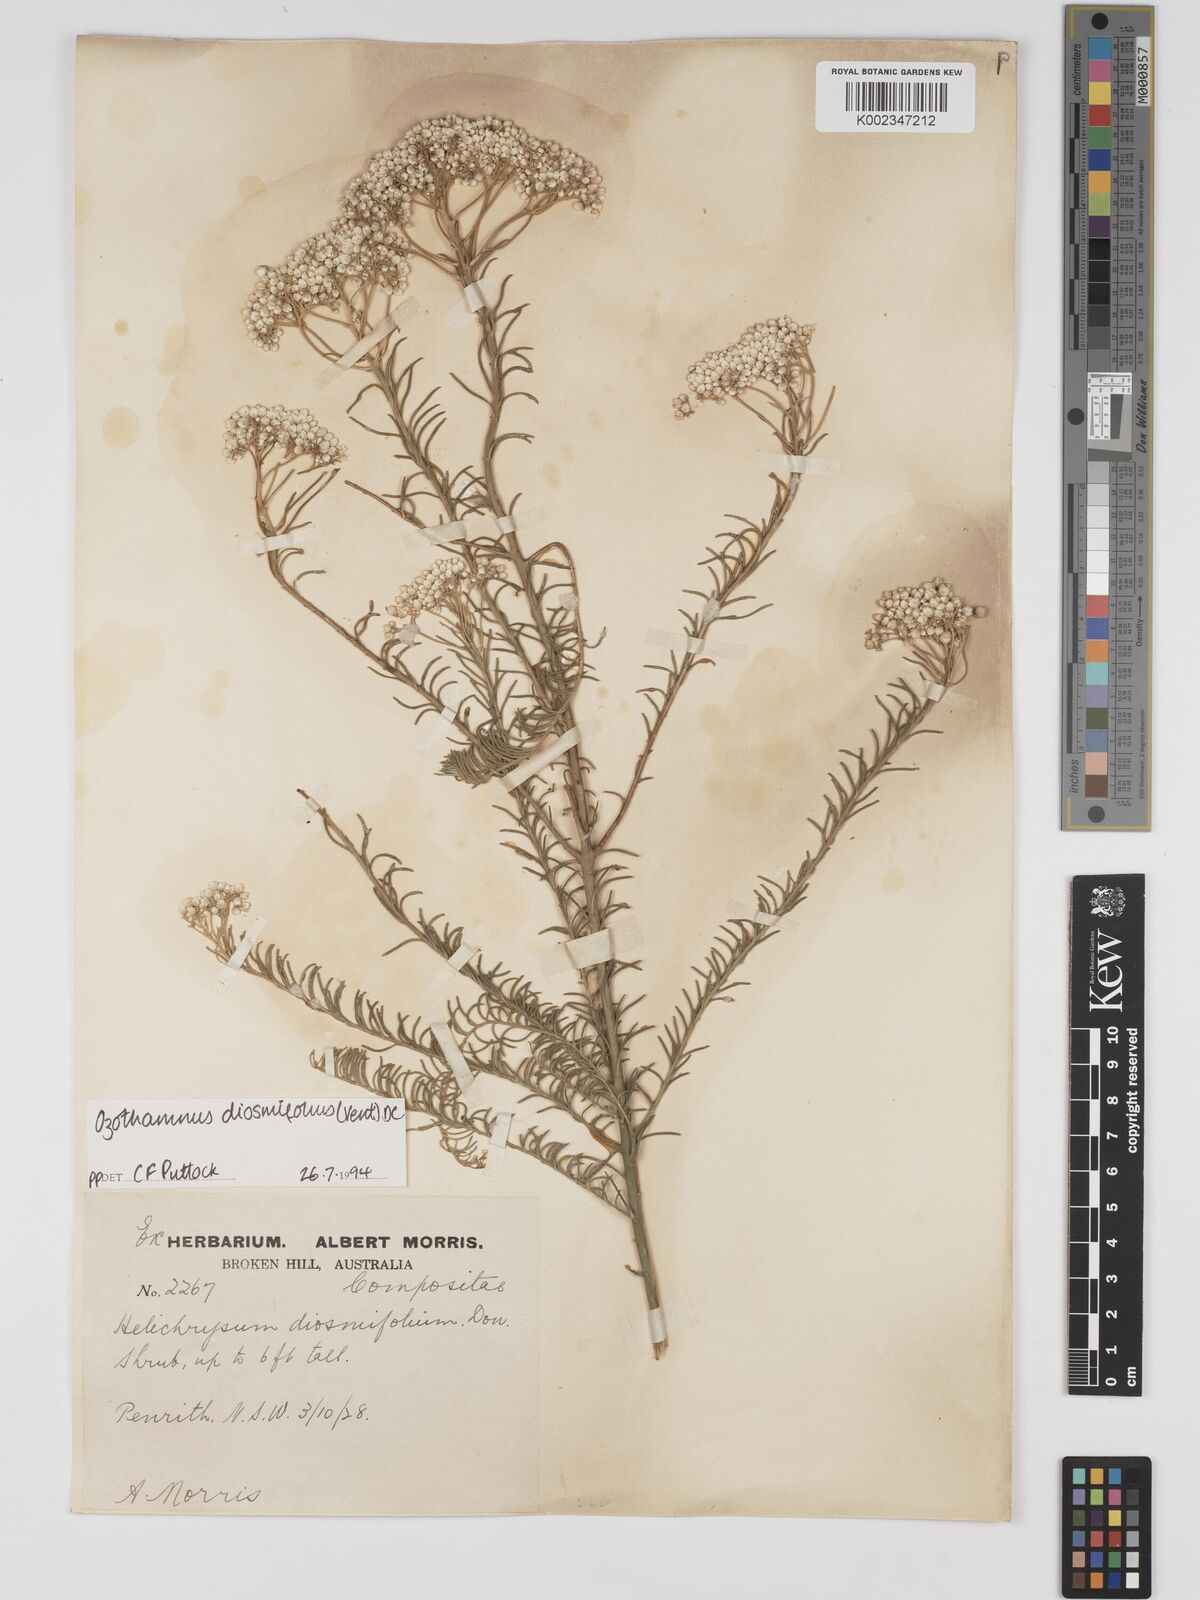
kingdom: Plantae
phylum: Tracheophyta
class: Magnoliopsida
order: Asterales
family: Asteraceae
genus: Ozothamnus
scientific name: Ozothamnus diosmifolius
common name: White-dogwood
